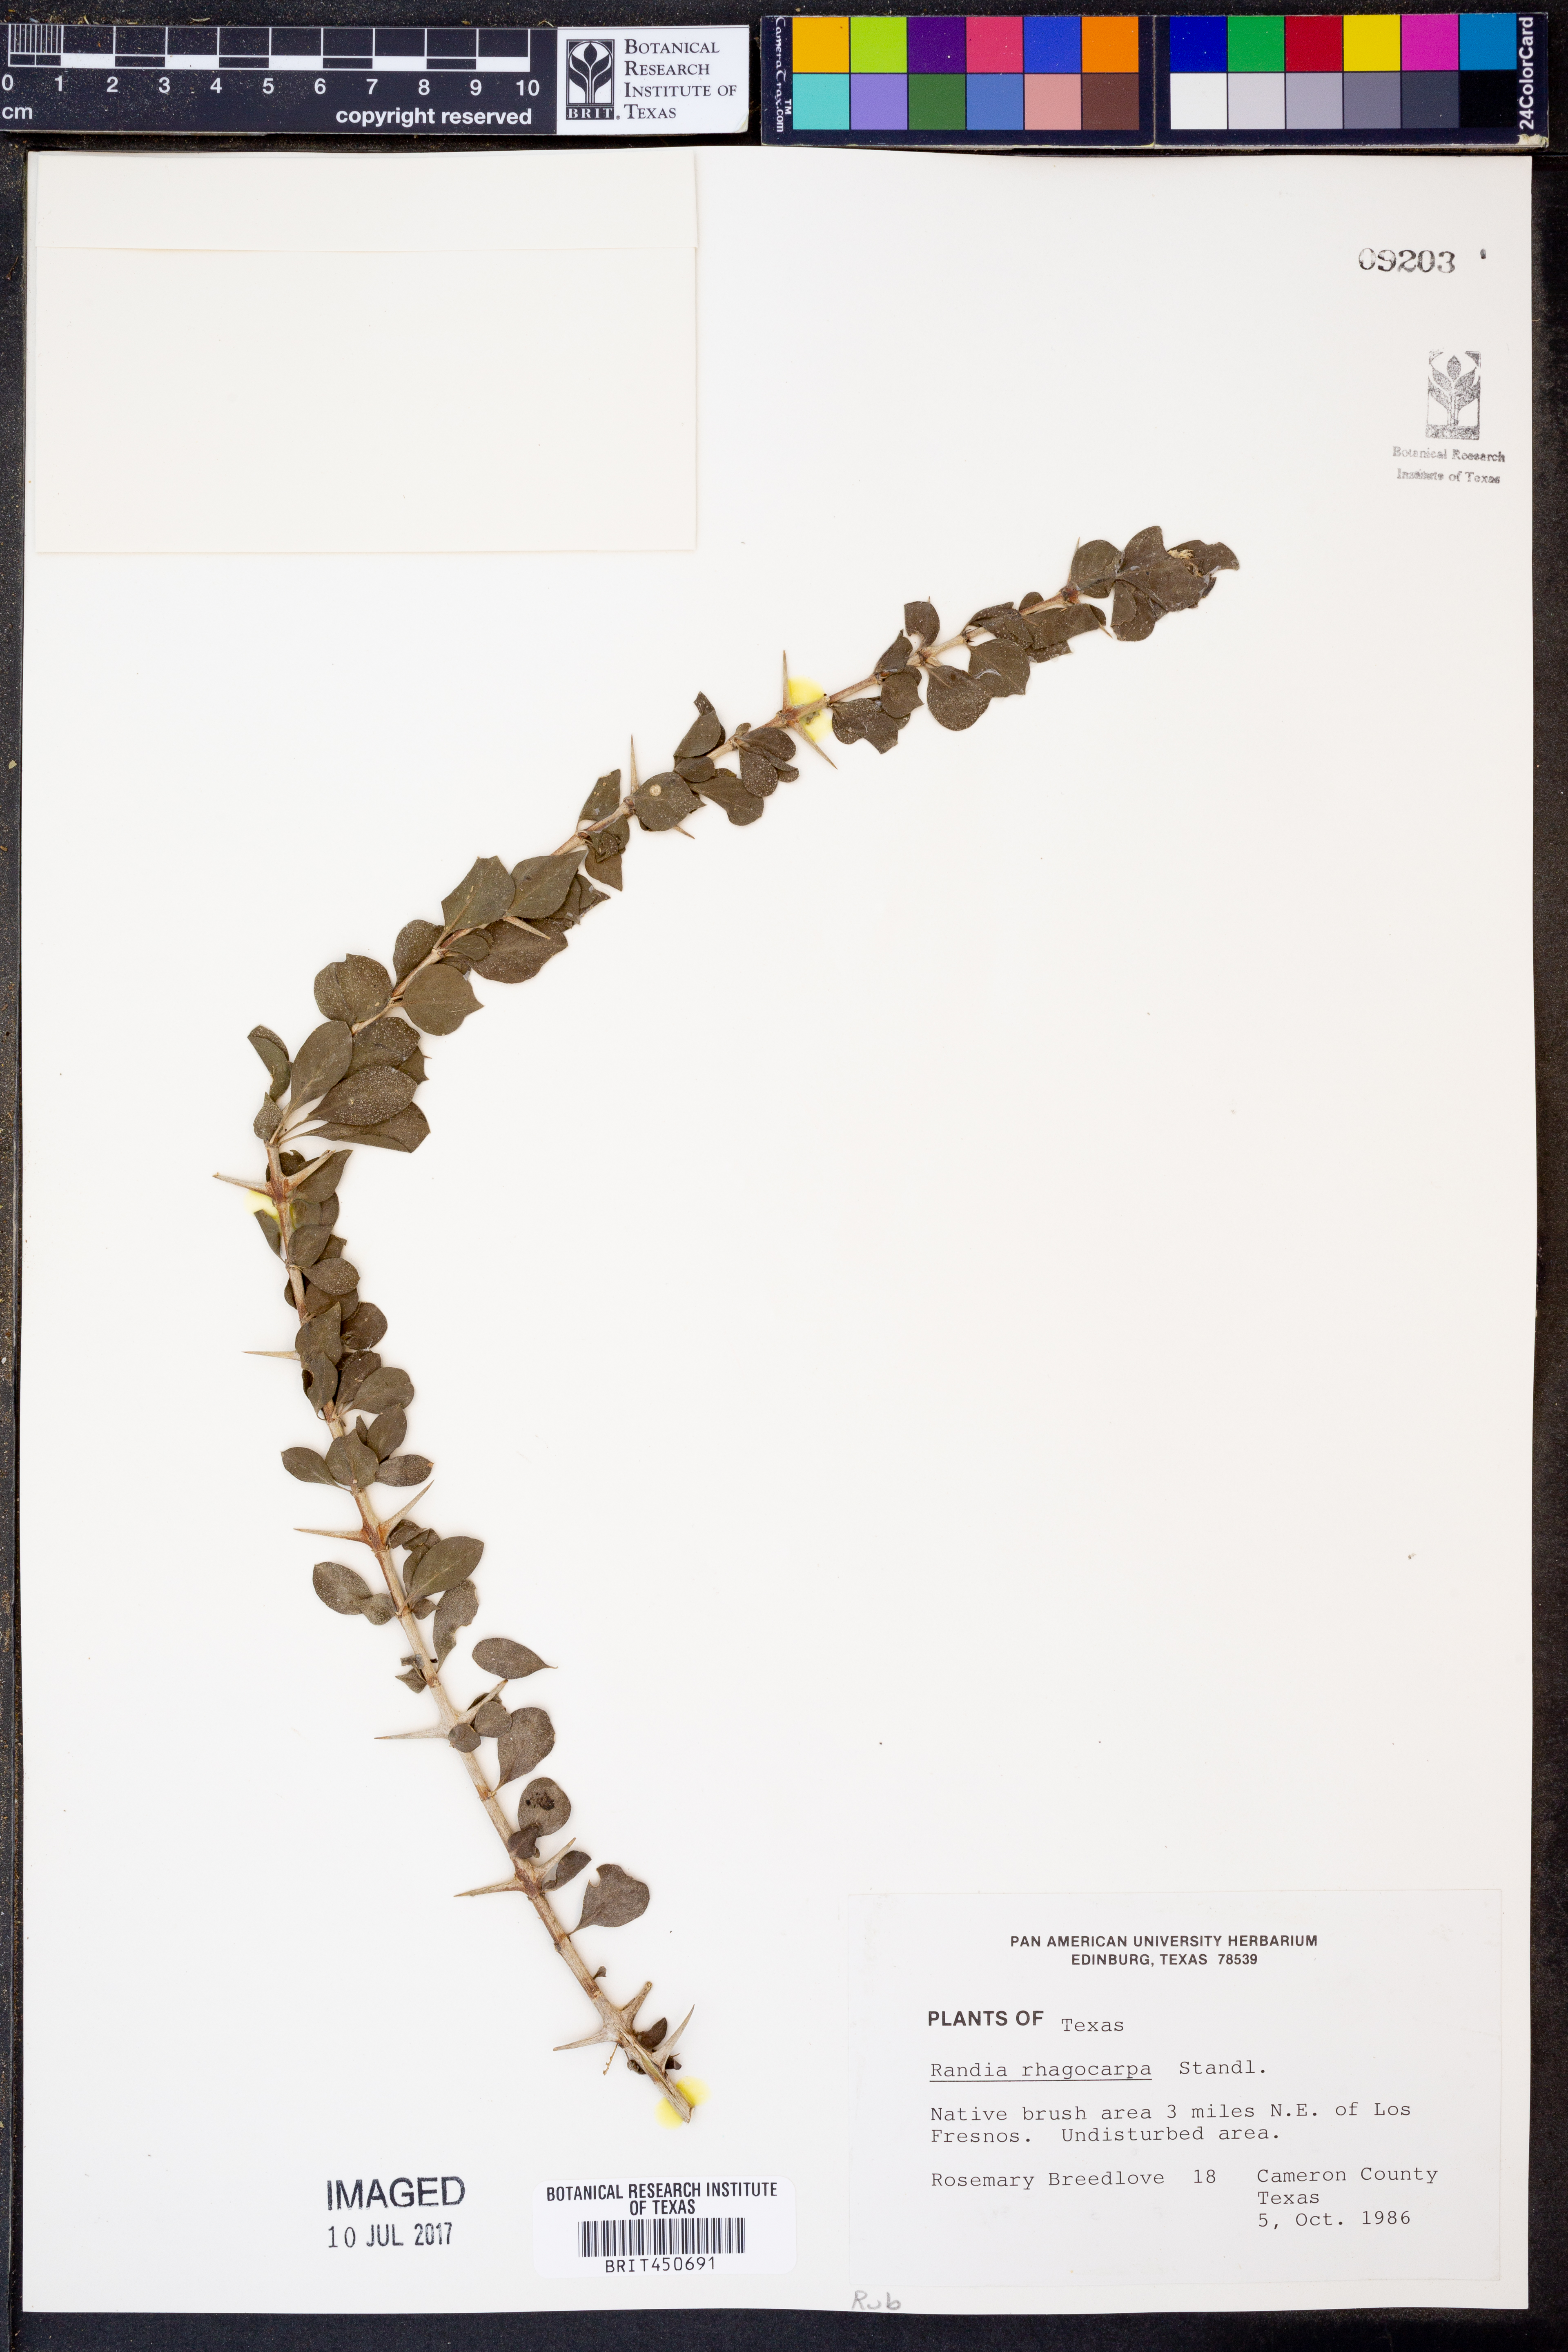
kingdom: Plantae
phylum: Tracheophyta
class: Magnoliopsida
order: Gentianales
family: Rubiaceae
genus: Randia
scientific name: Randia obcordata
